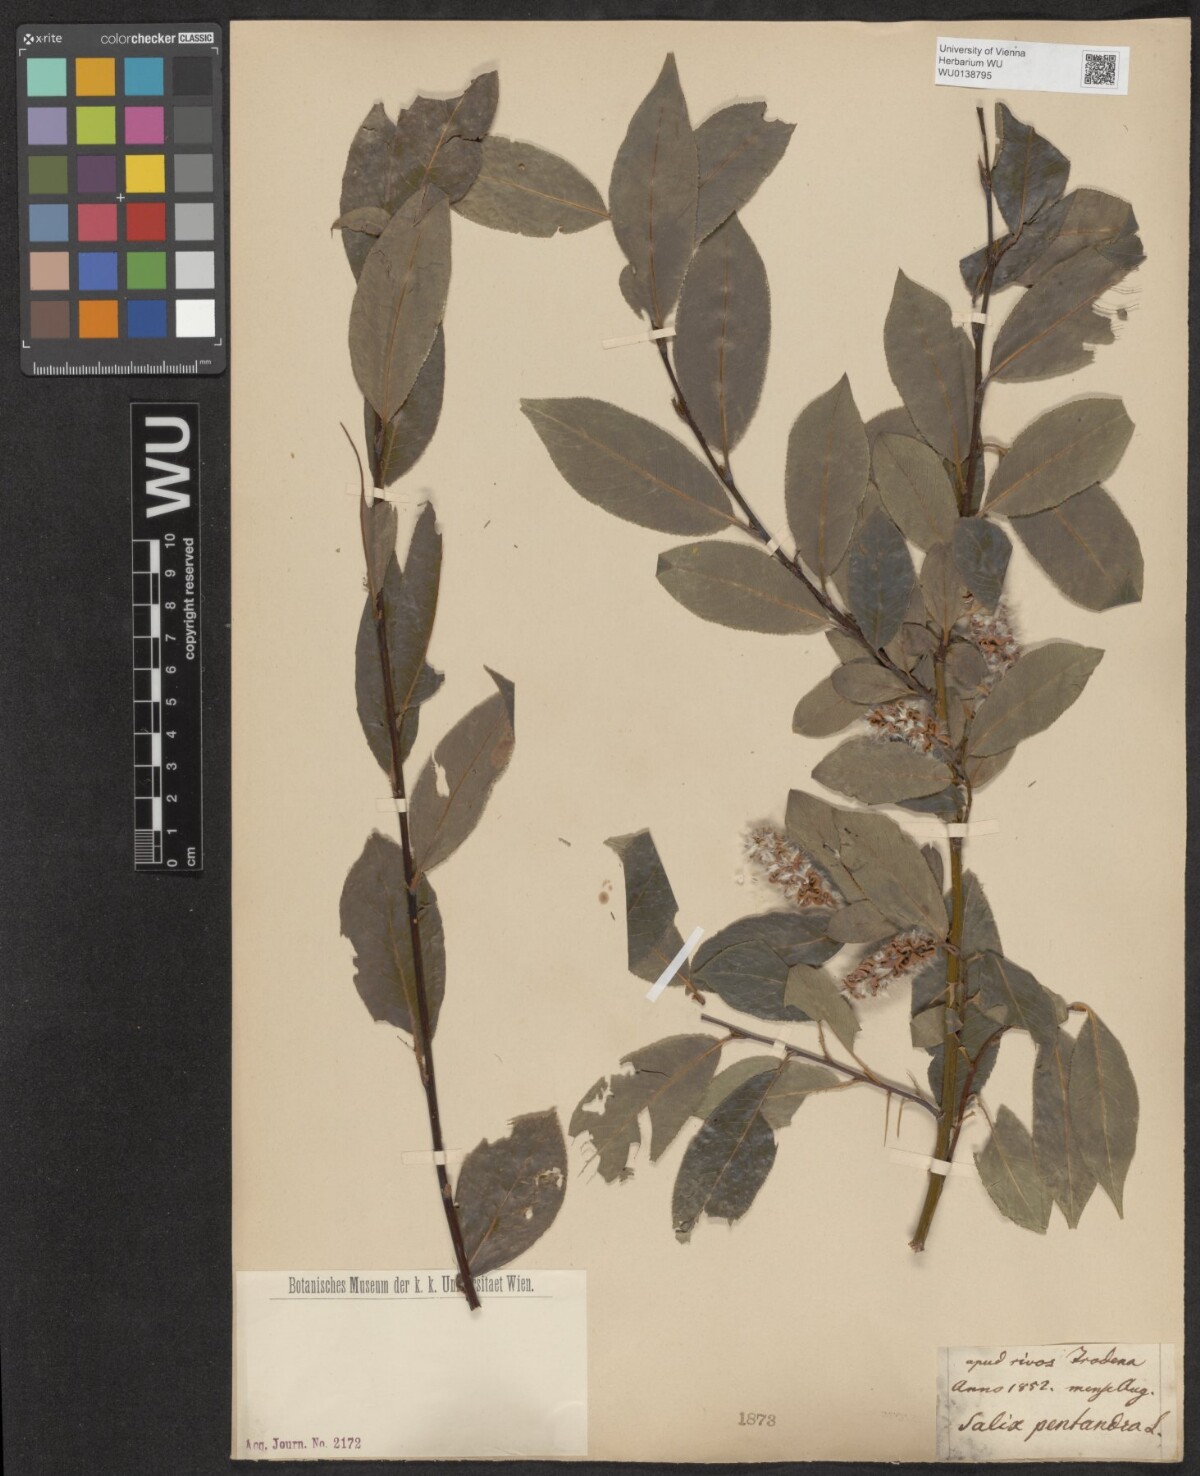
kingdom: Plantae
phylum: Tracheophyta
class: Magnoliopsida
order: Malpighiales
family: Salicaceae
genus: Salix
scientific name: Salix pentandra
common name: Bay willow
